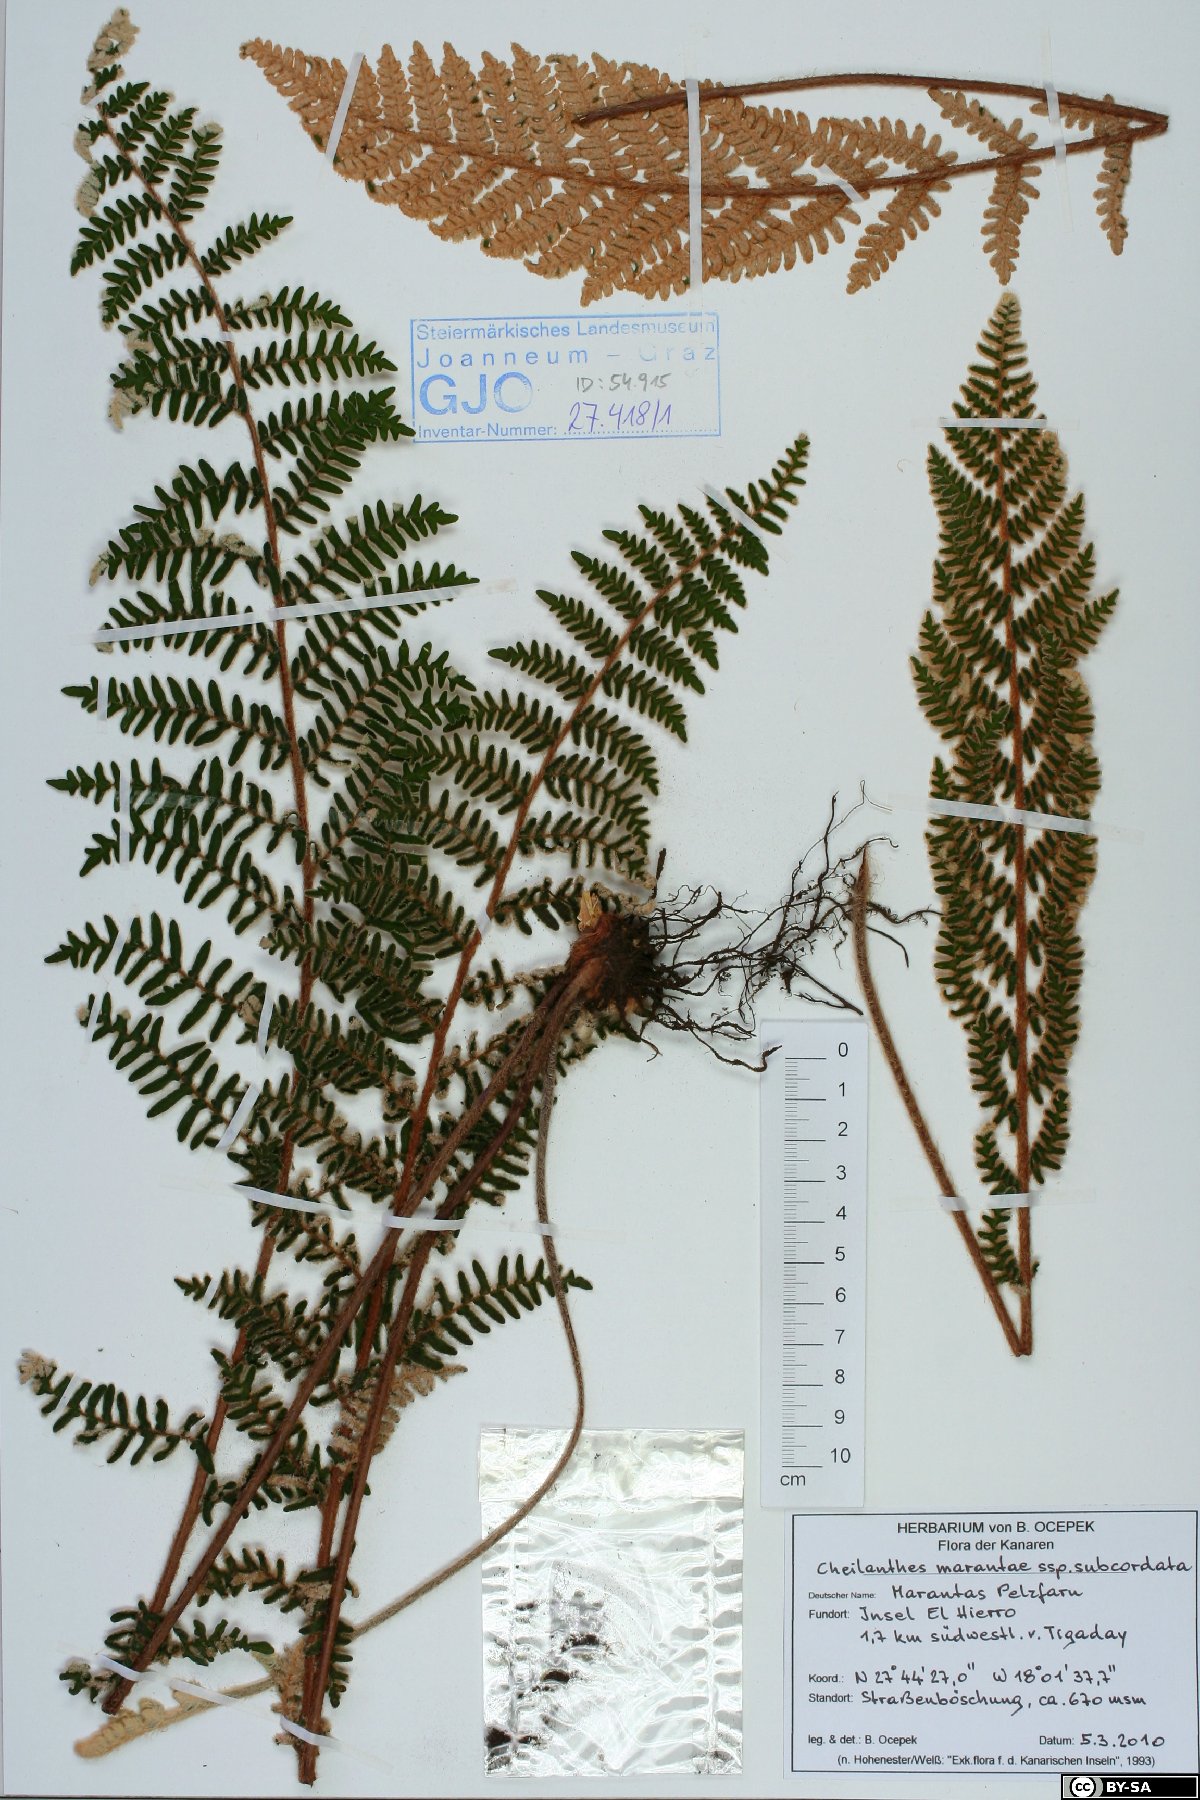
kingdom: Plantae
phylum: Tracheophyta
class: Polypodiopsida
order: Polypodiales
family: Pteridaceae
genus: Paragymnopteris
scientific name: Paragymnopteris marantae
